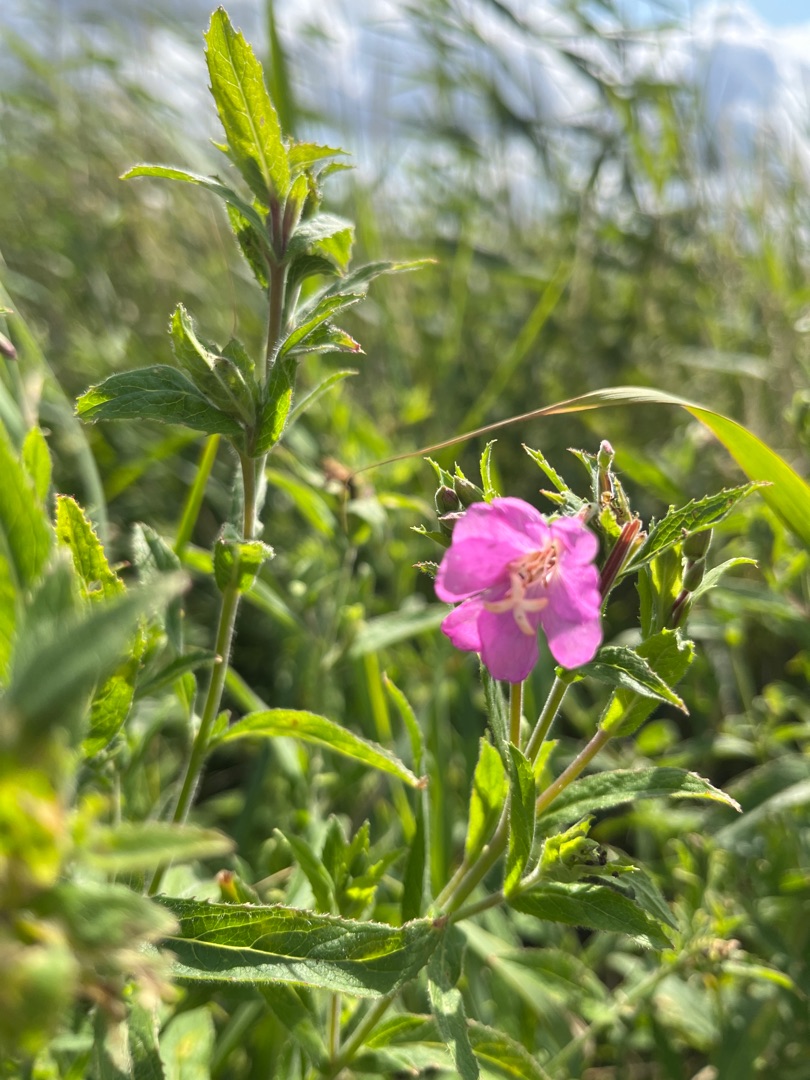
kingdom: Plantae
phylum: Tracheophyta
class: Magnoliopsida
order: Myrtales
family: Onagraceae
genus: Epilobium
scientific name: Epilobium hirsutum
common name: Lådden dueurt
